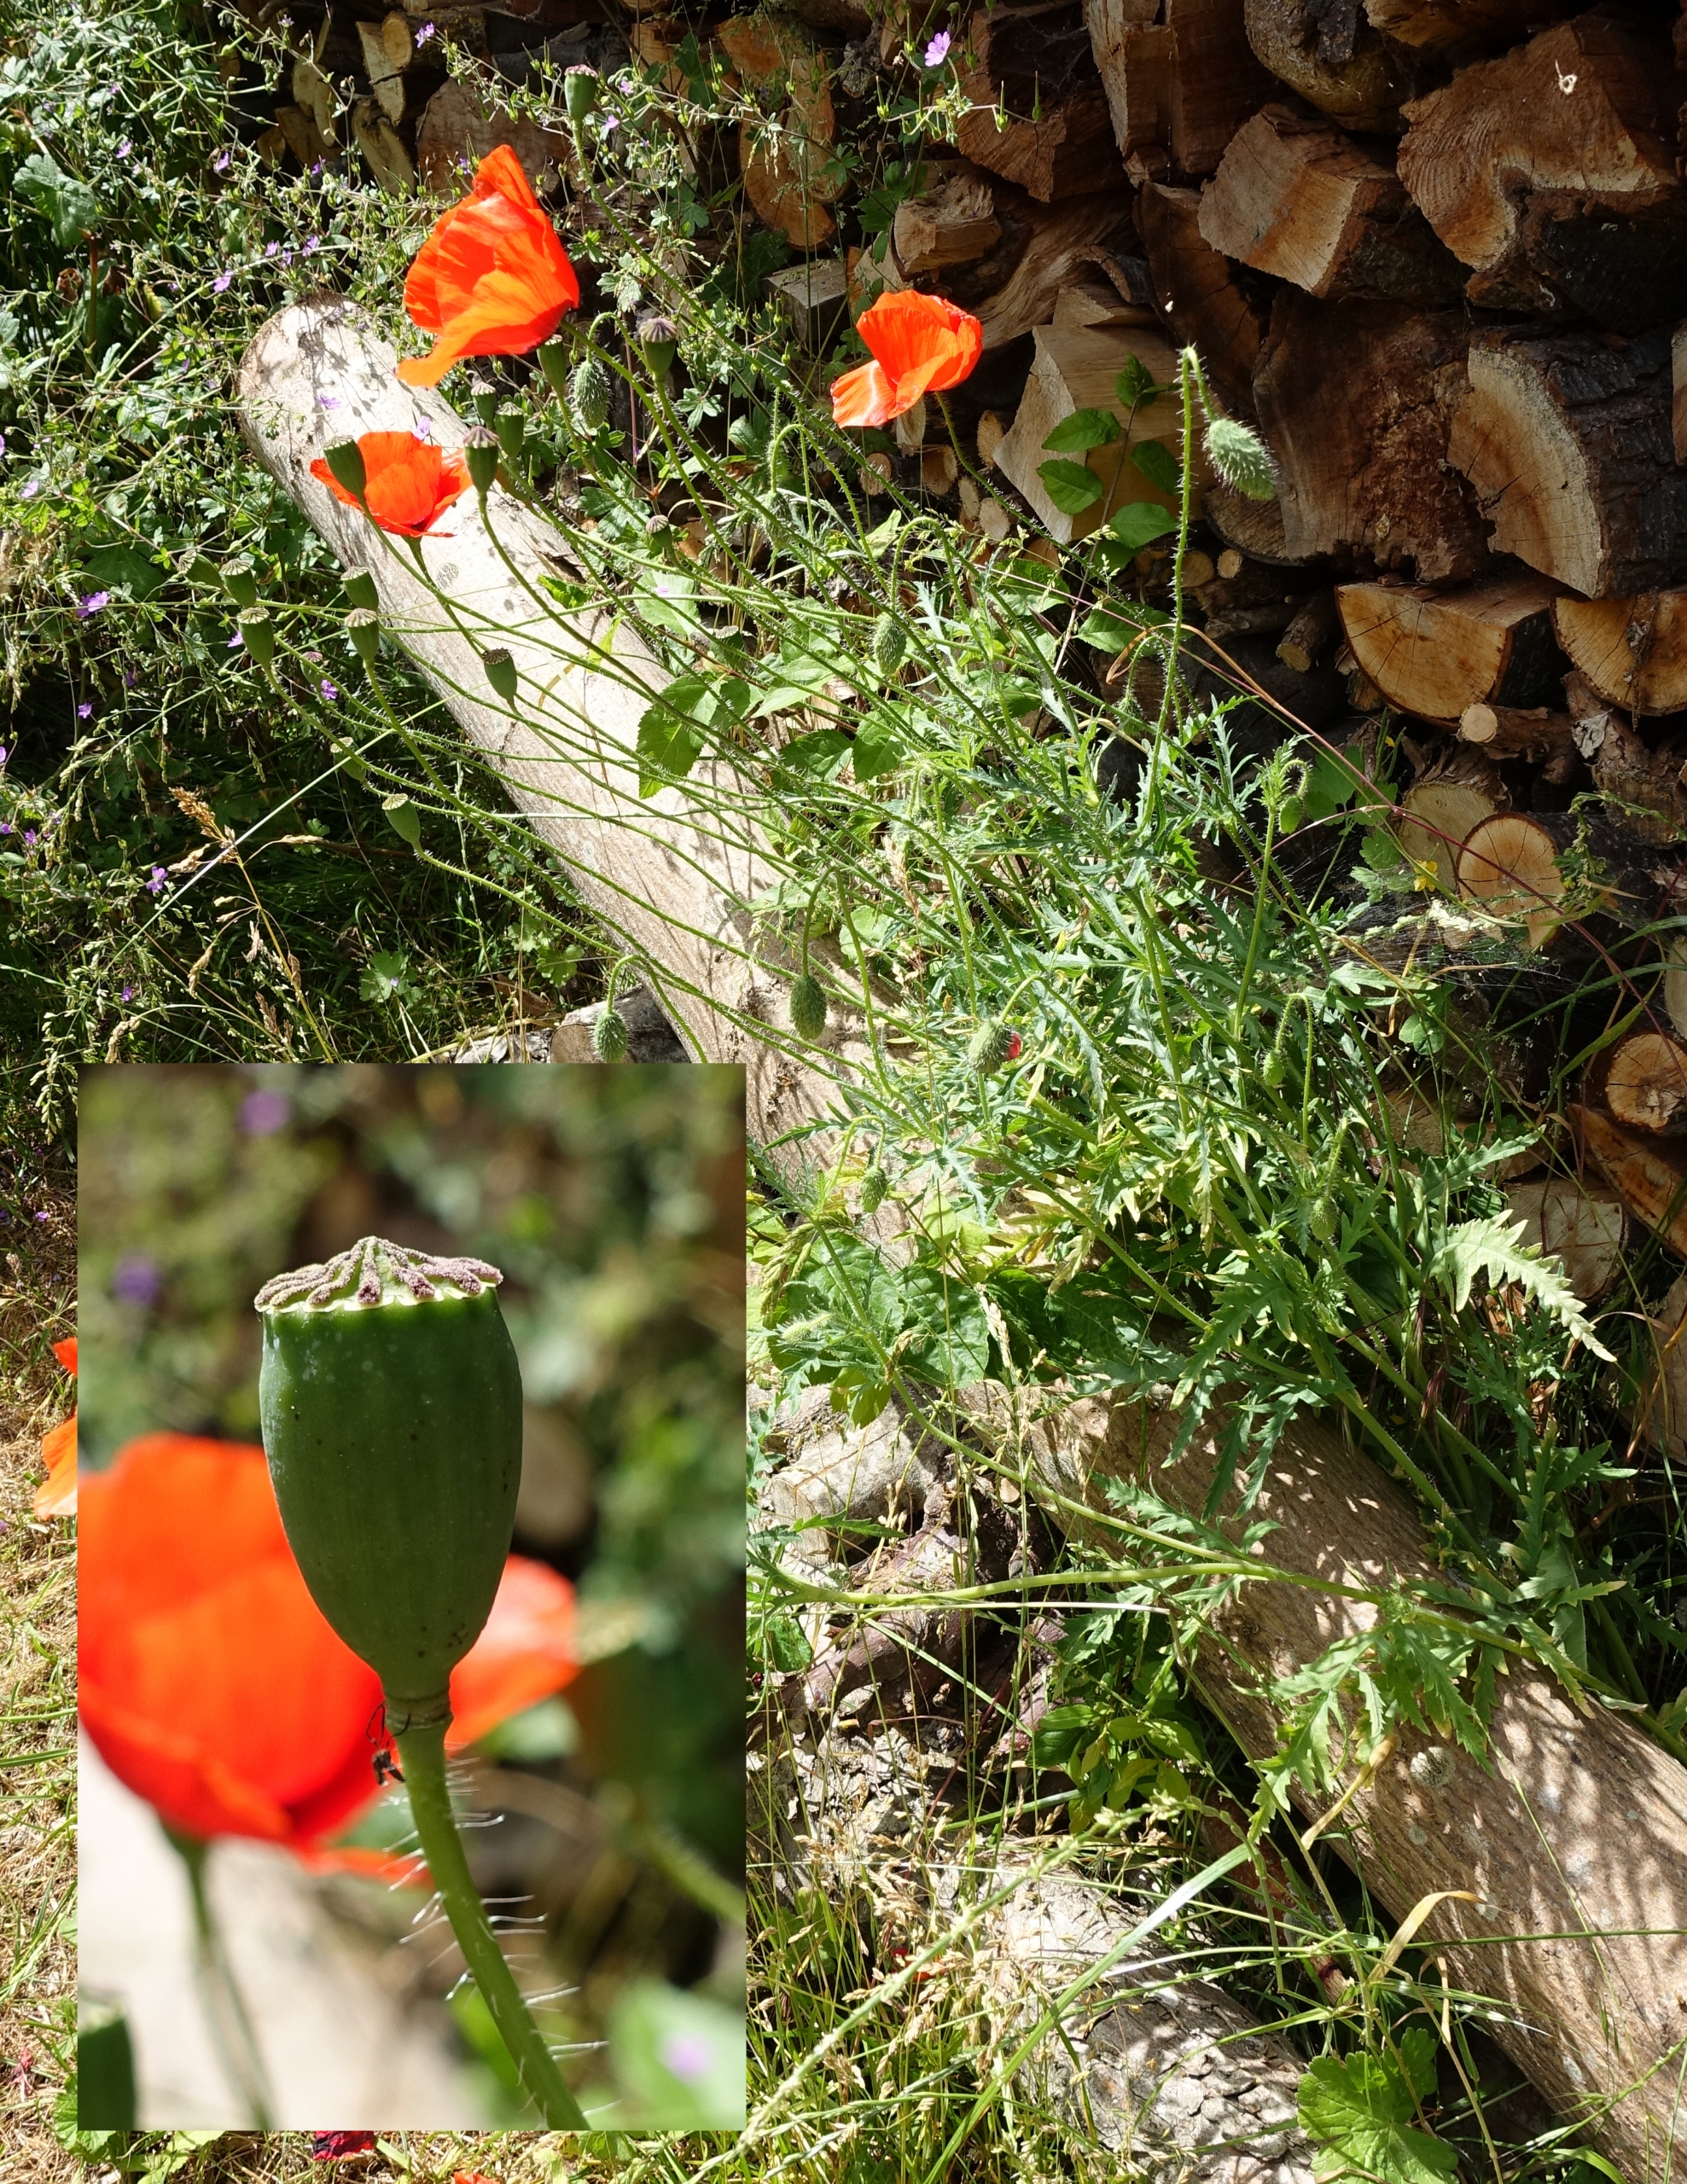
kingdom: Plantae
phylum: Tracheophyta
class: Magnoliopsida
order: Ranunculales
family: Papaveraceae
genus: Papaver
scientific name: Papaver rhoeas
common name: Korn-valmue
